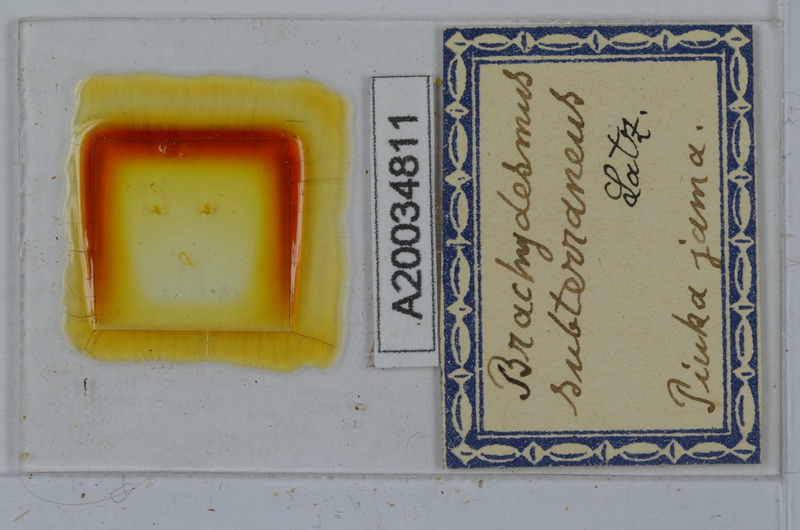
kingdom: Animalia
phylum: Arthropoda
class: Diplopoda
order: Polydesmida
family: Polydesmidae
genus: Brachydesmus
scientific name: Brachydesmus subterraneus
